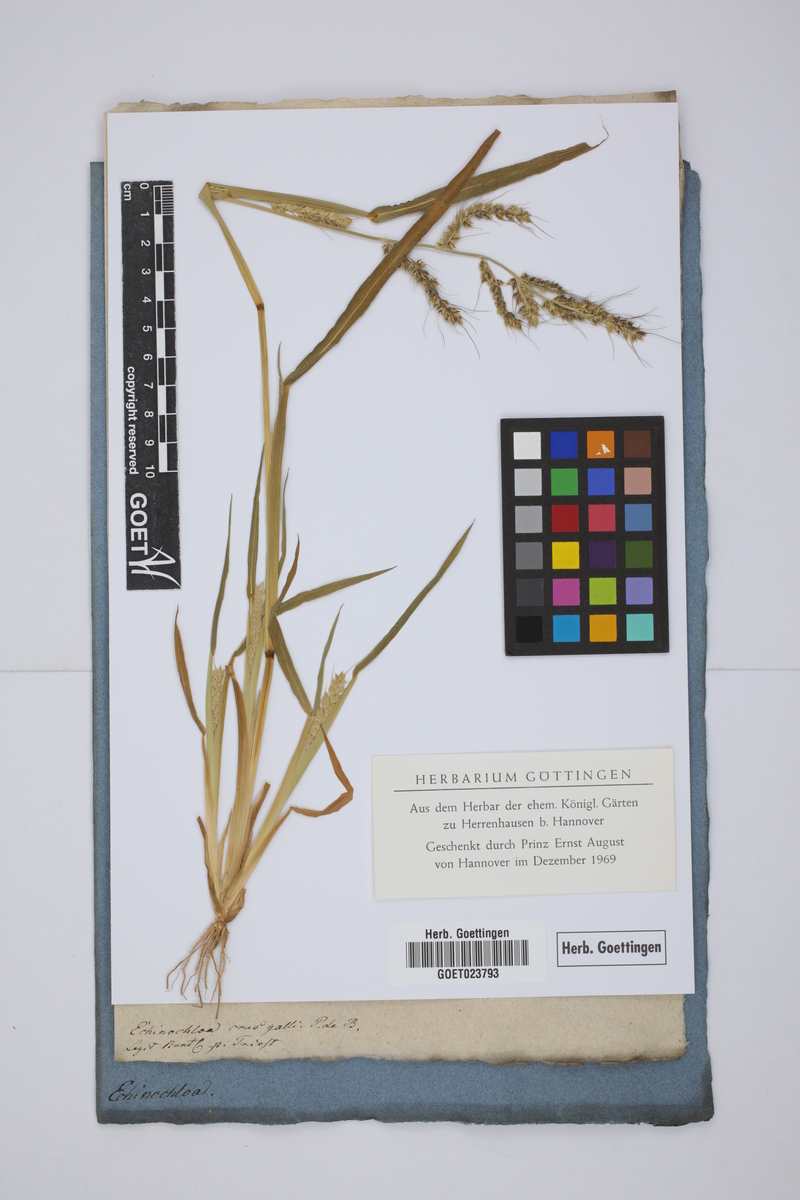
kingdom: Plantae
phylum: Tracheophyta
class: Liliopsida
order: Poales
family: Poaceae
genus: Echinochloa
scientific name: Echinochloa crus-galli
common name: Cockspur
